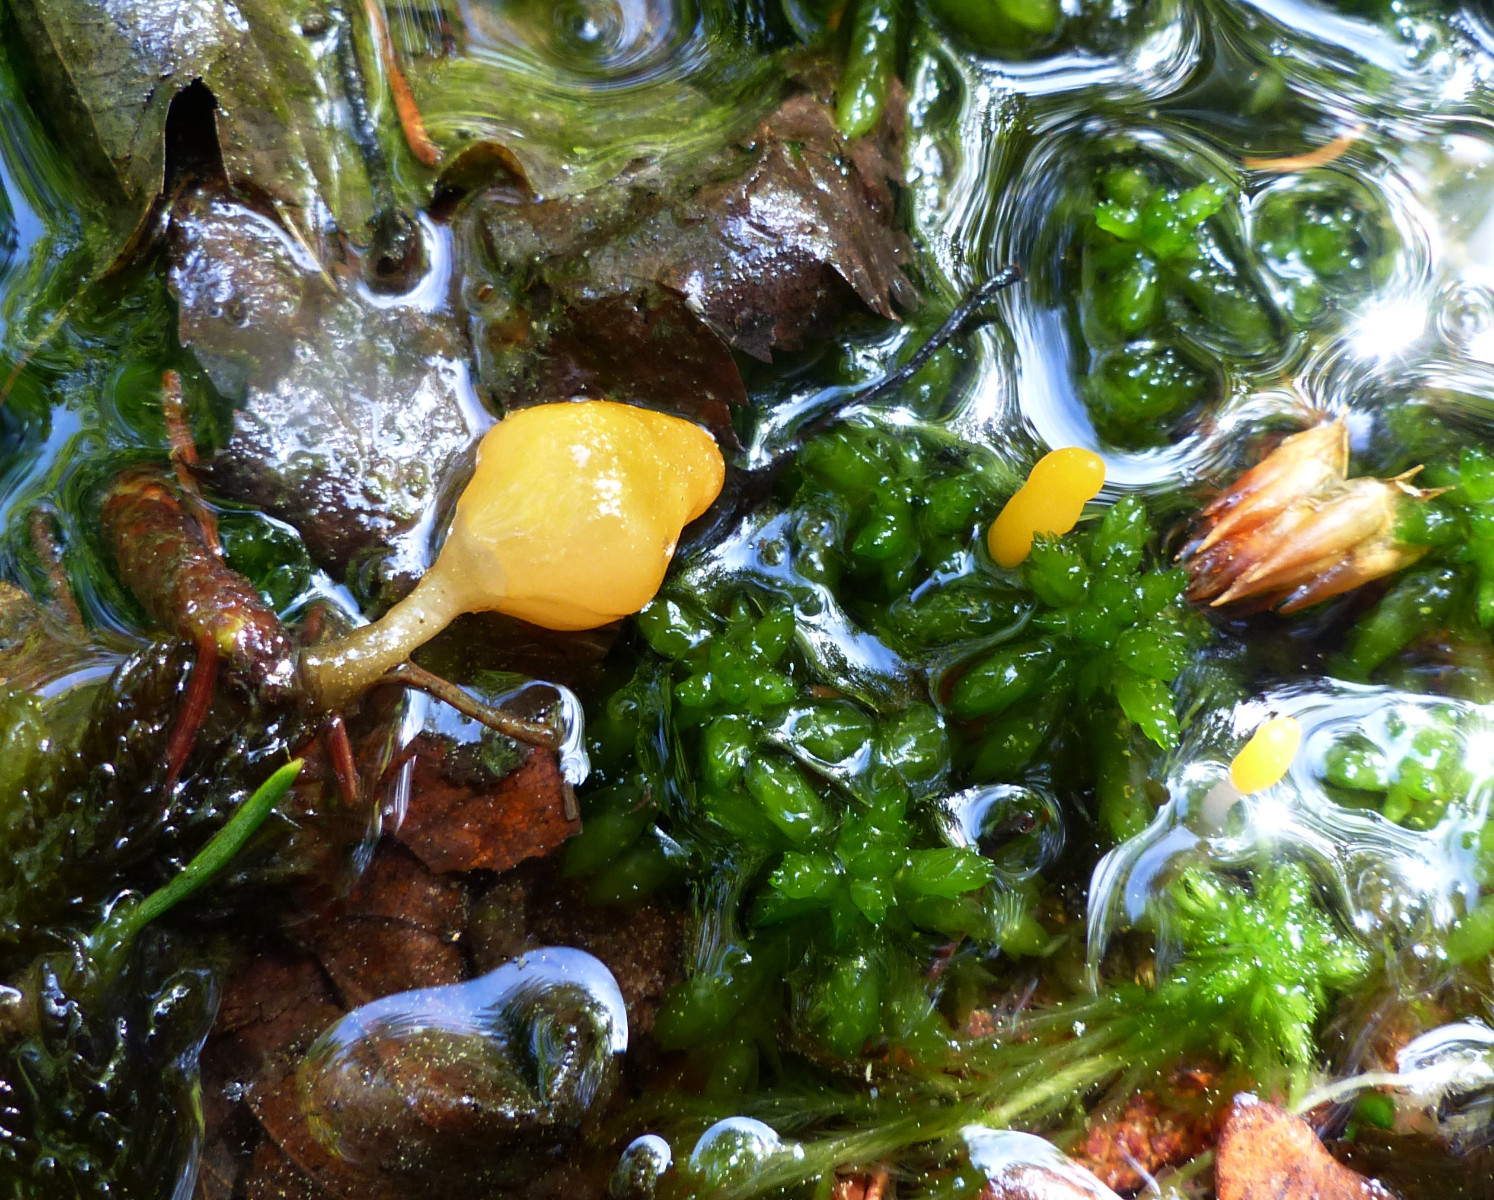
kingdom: Fungi
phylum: Ascomycota
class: Leotiomycetes
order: Helotiales
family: Cenangiaceae
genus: Mitrula
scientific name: Mitrula paludosa
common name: gul nøkketunge
